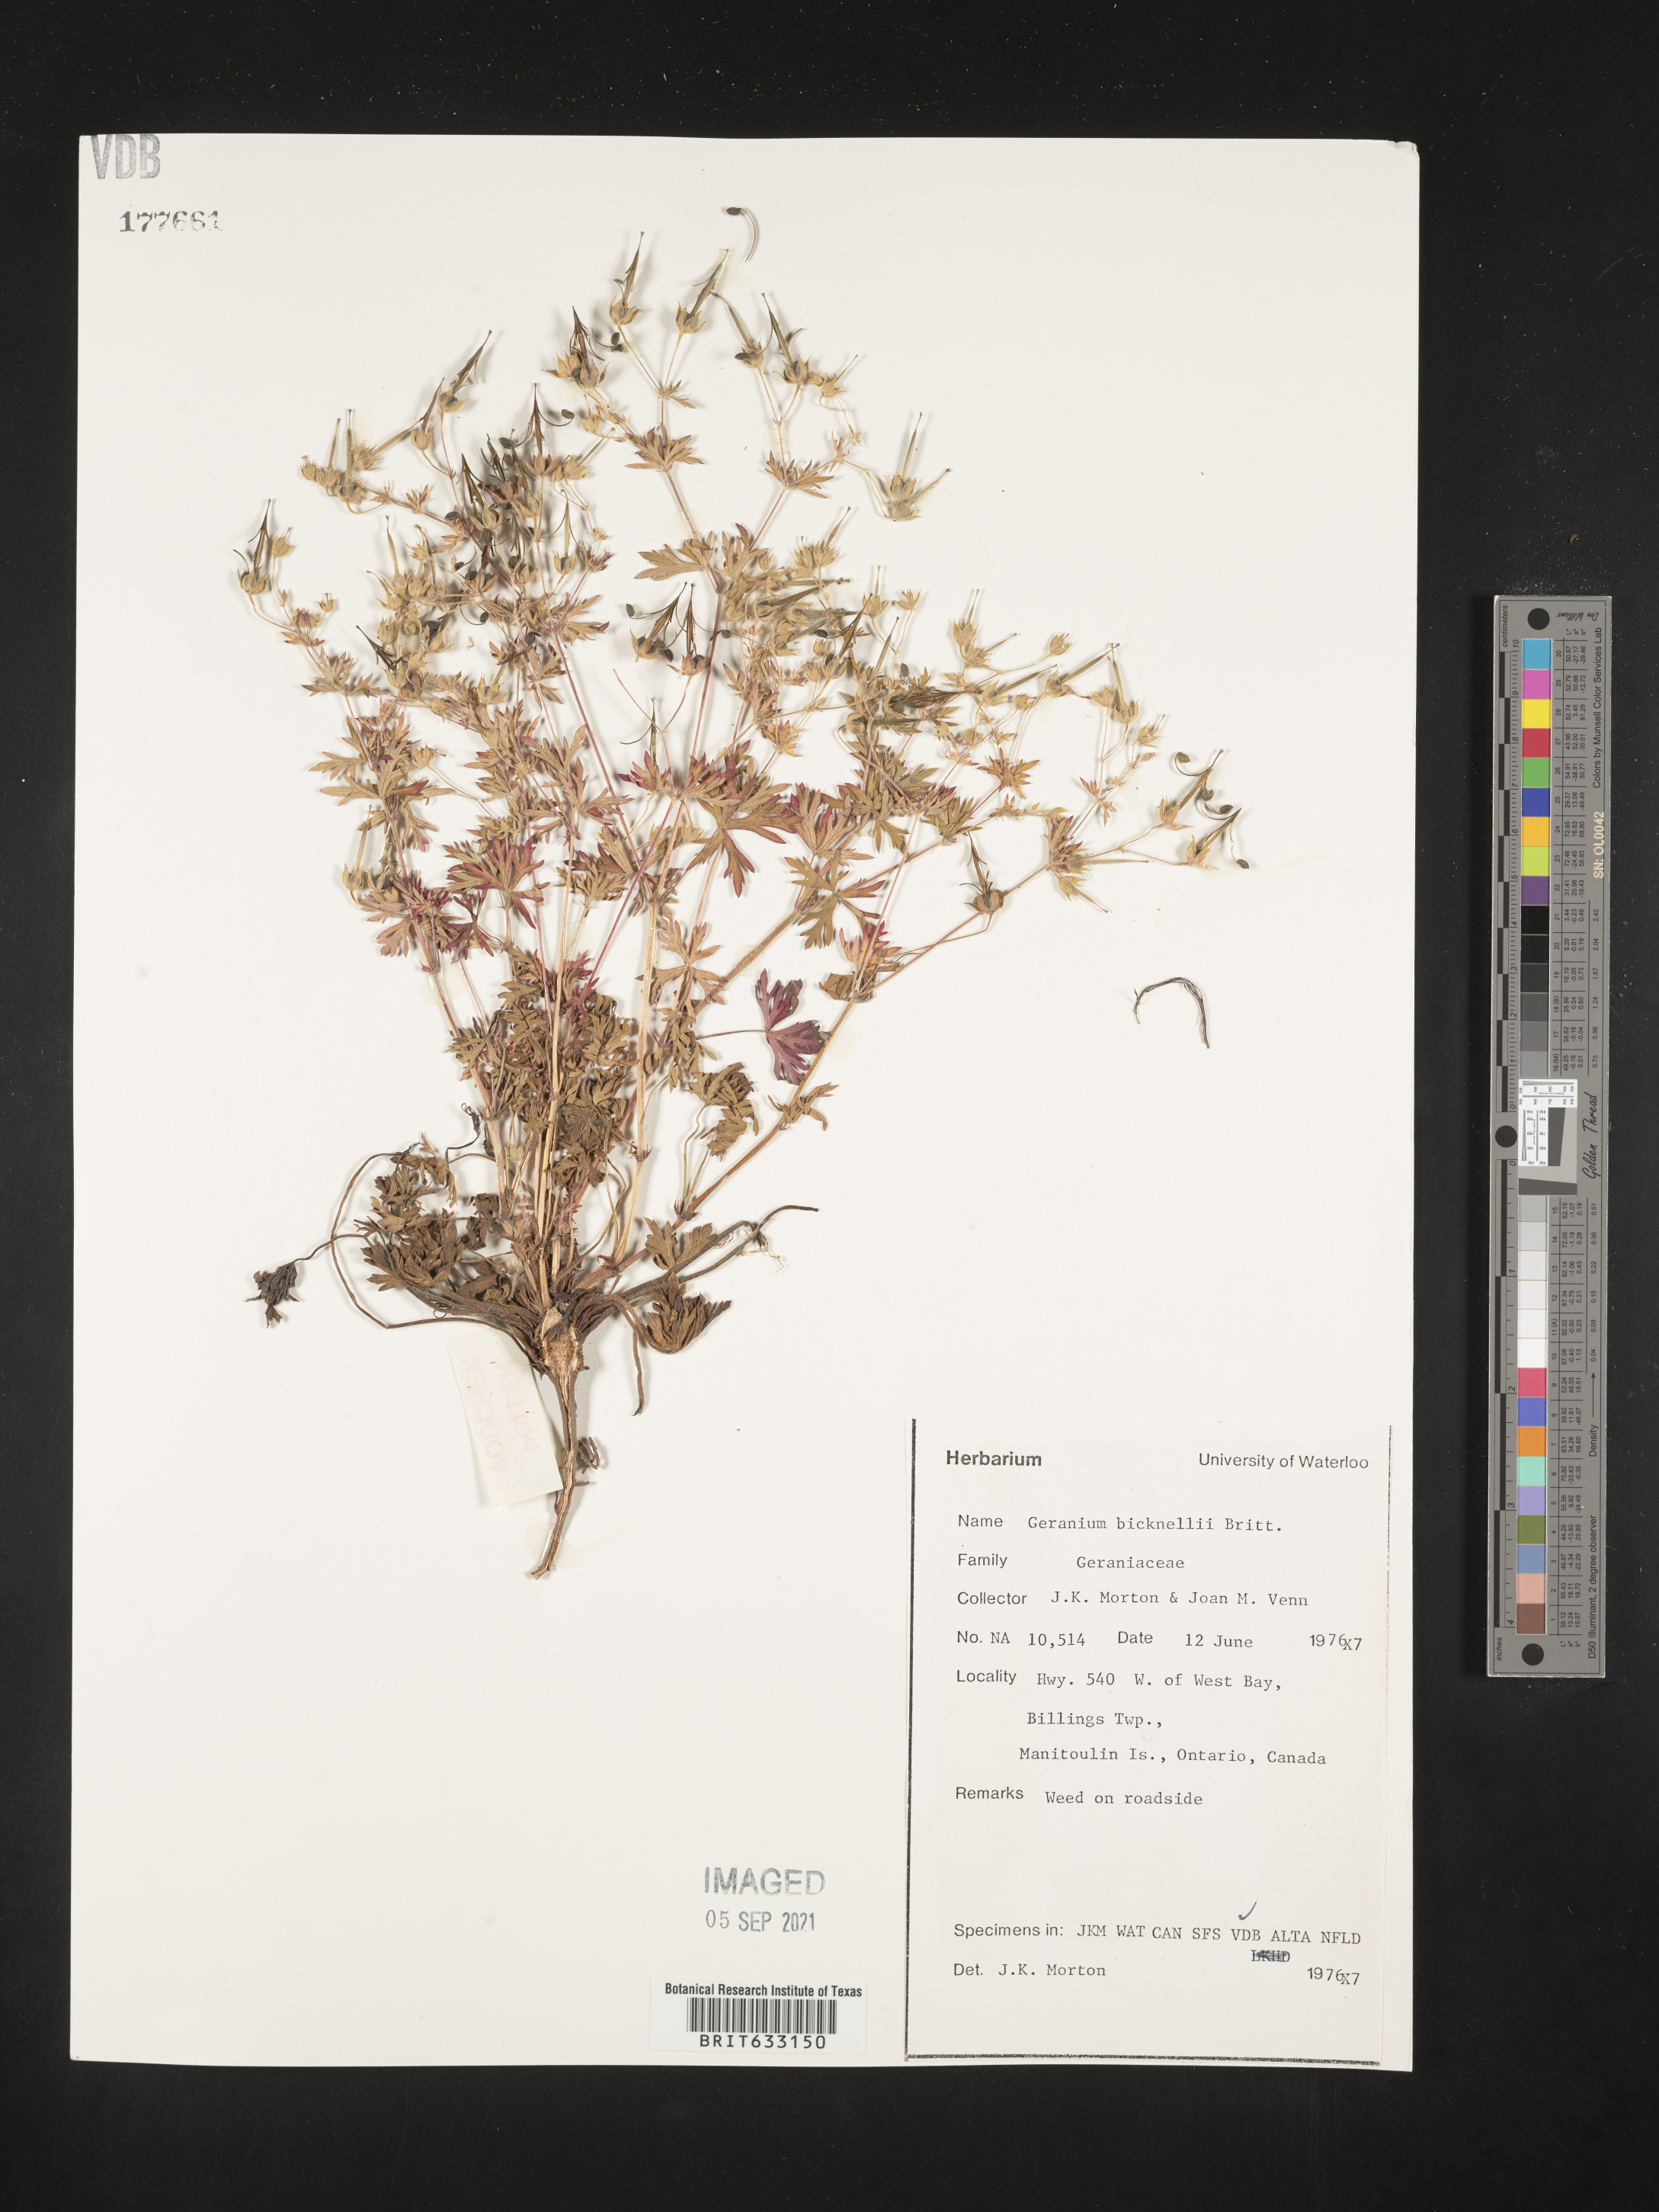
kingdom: Plantae
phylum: Tracheophyta
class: Magnoliopsida
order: Geraniales
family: Geraniaceae
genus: Geranium
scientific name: Geranium
